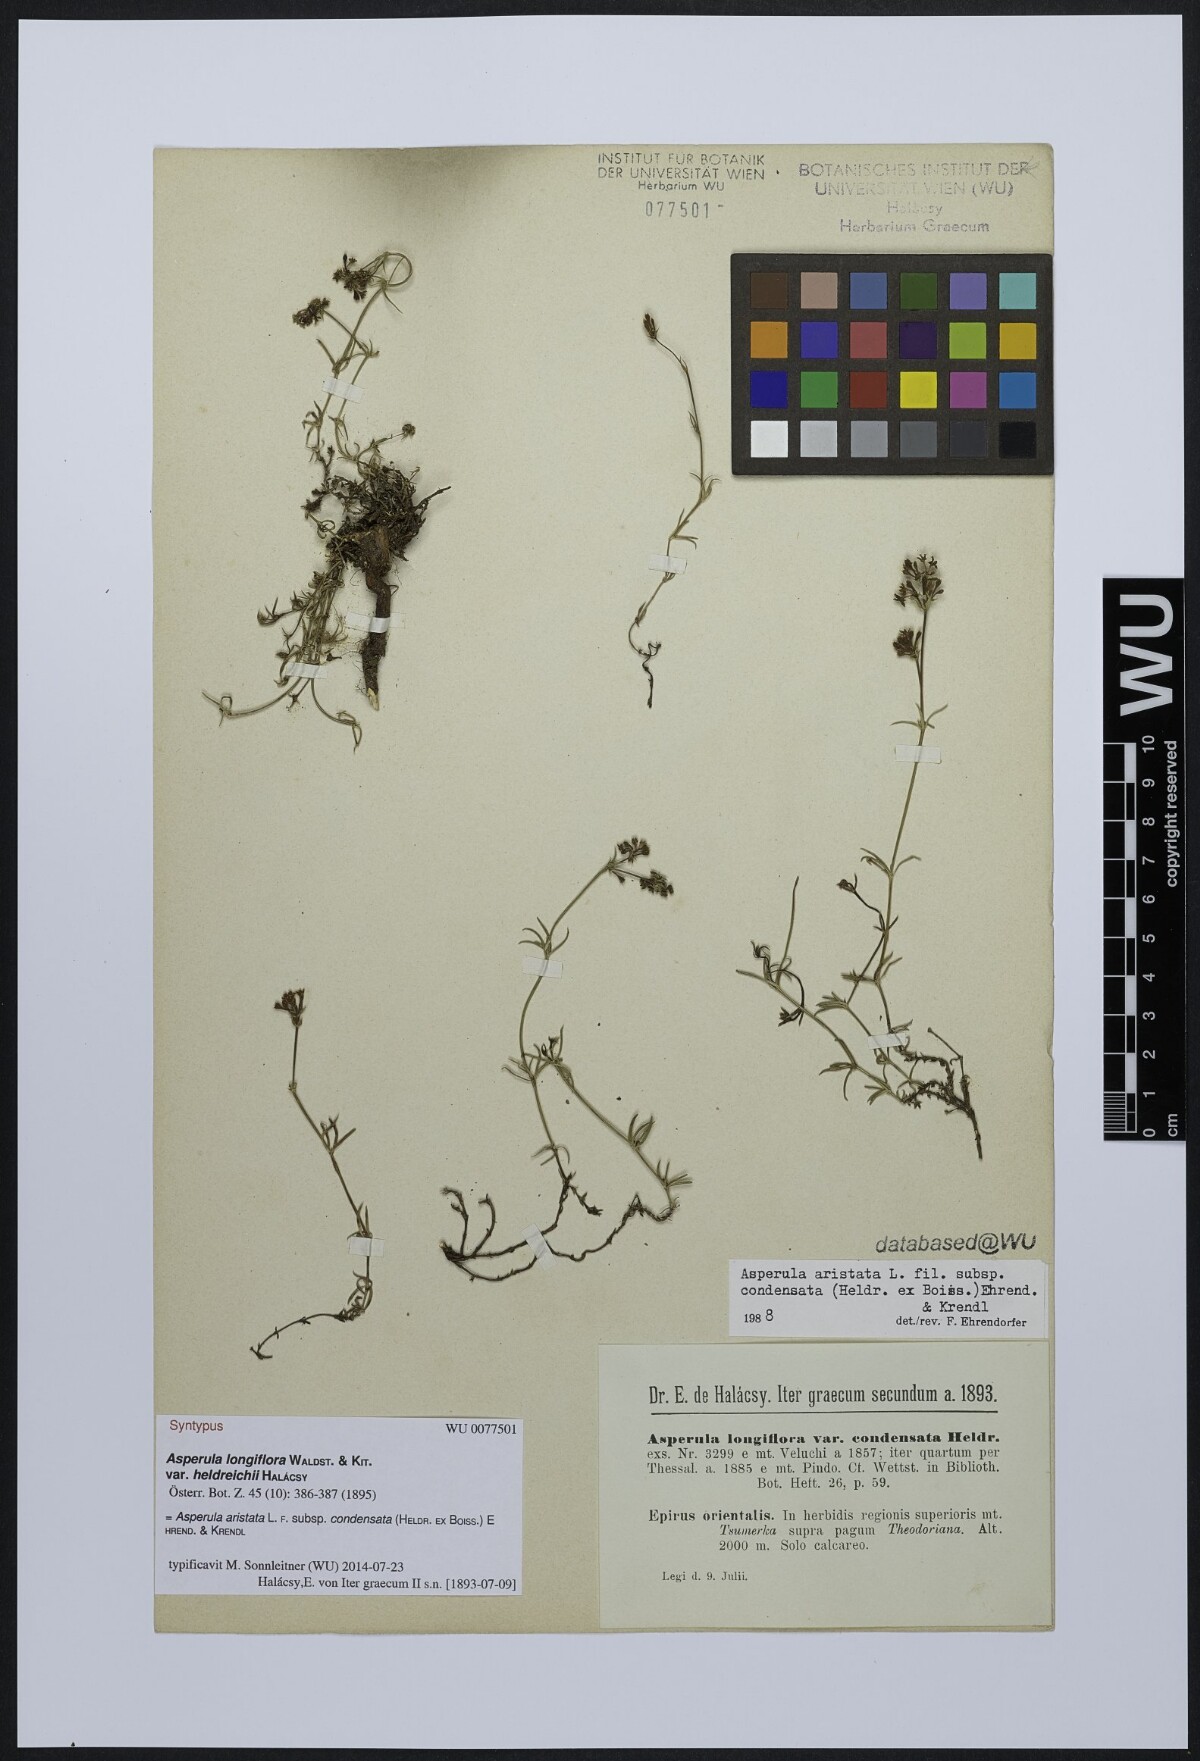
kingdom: Plantae
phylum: Tracheophyta
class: Magnoliopsida
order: Gentianales
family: Rubiaceae
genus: Asperula
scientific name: Asperula longiflora
